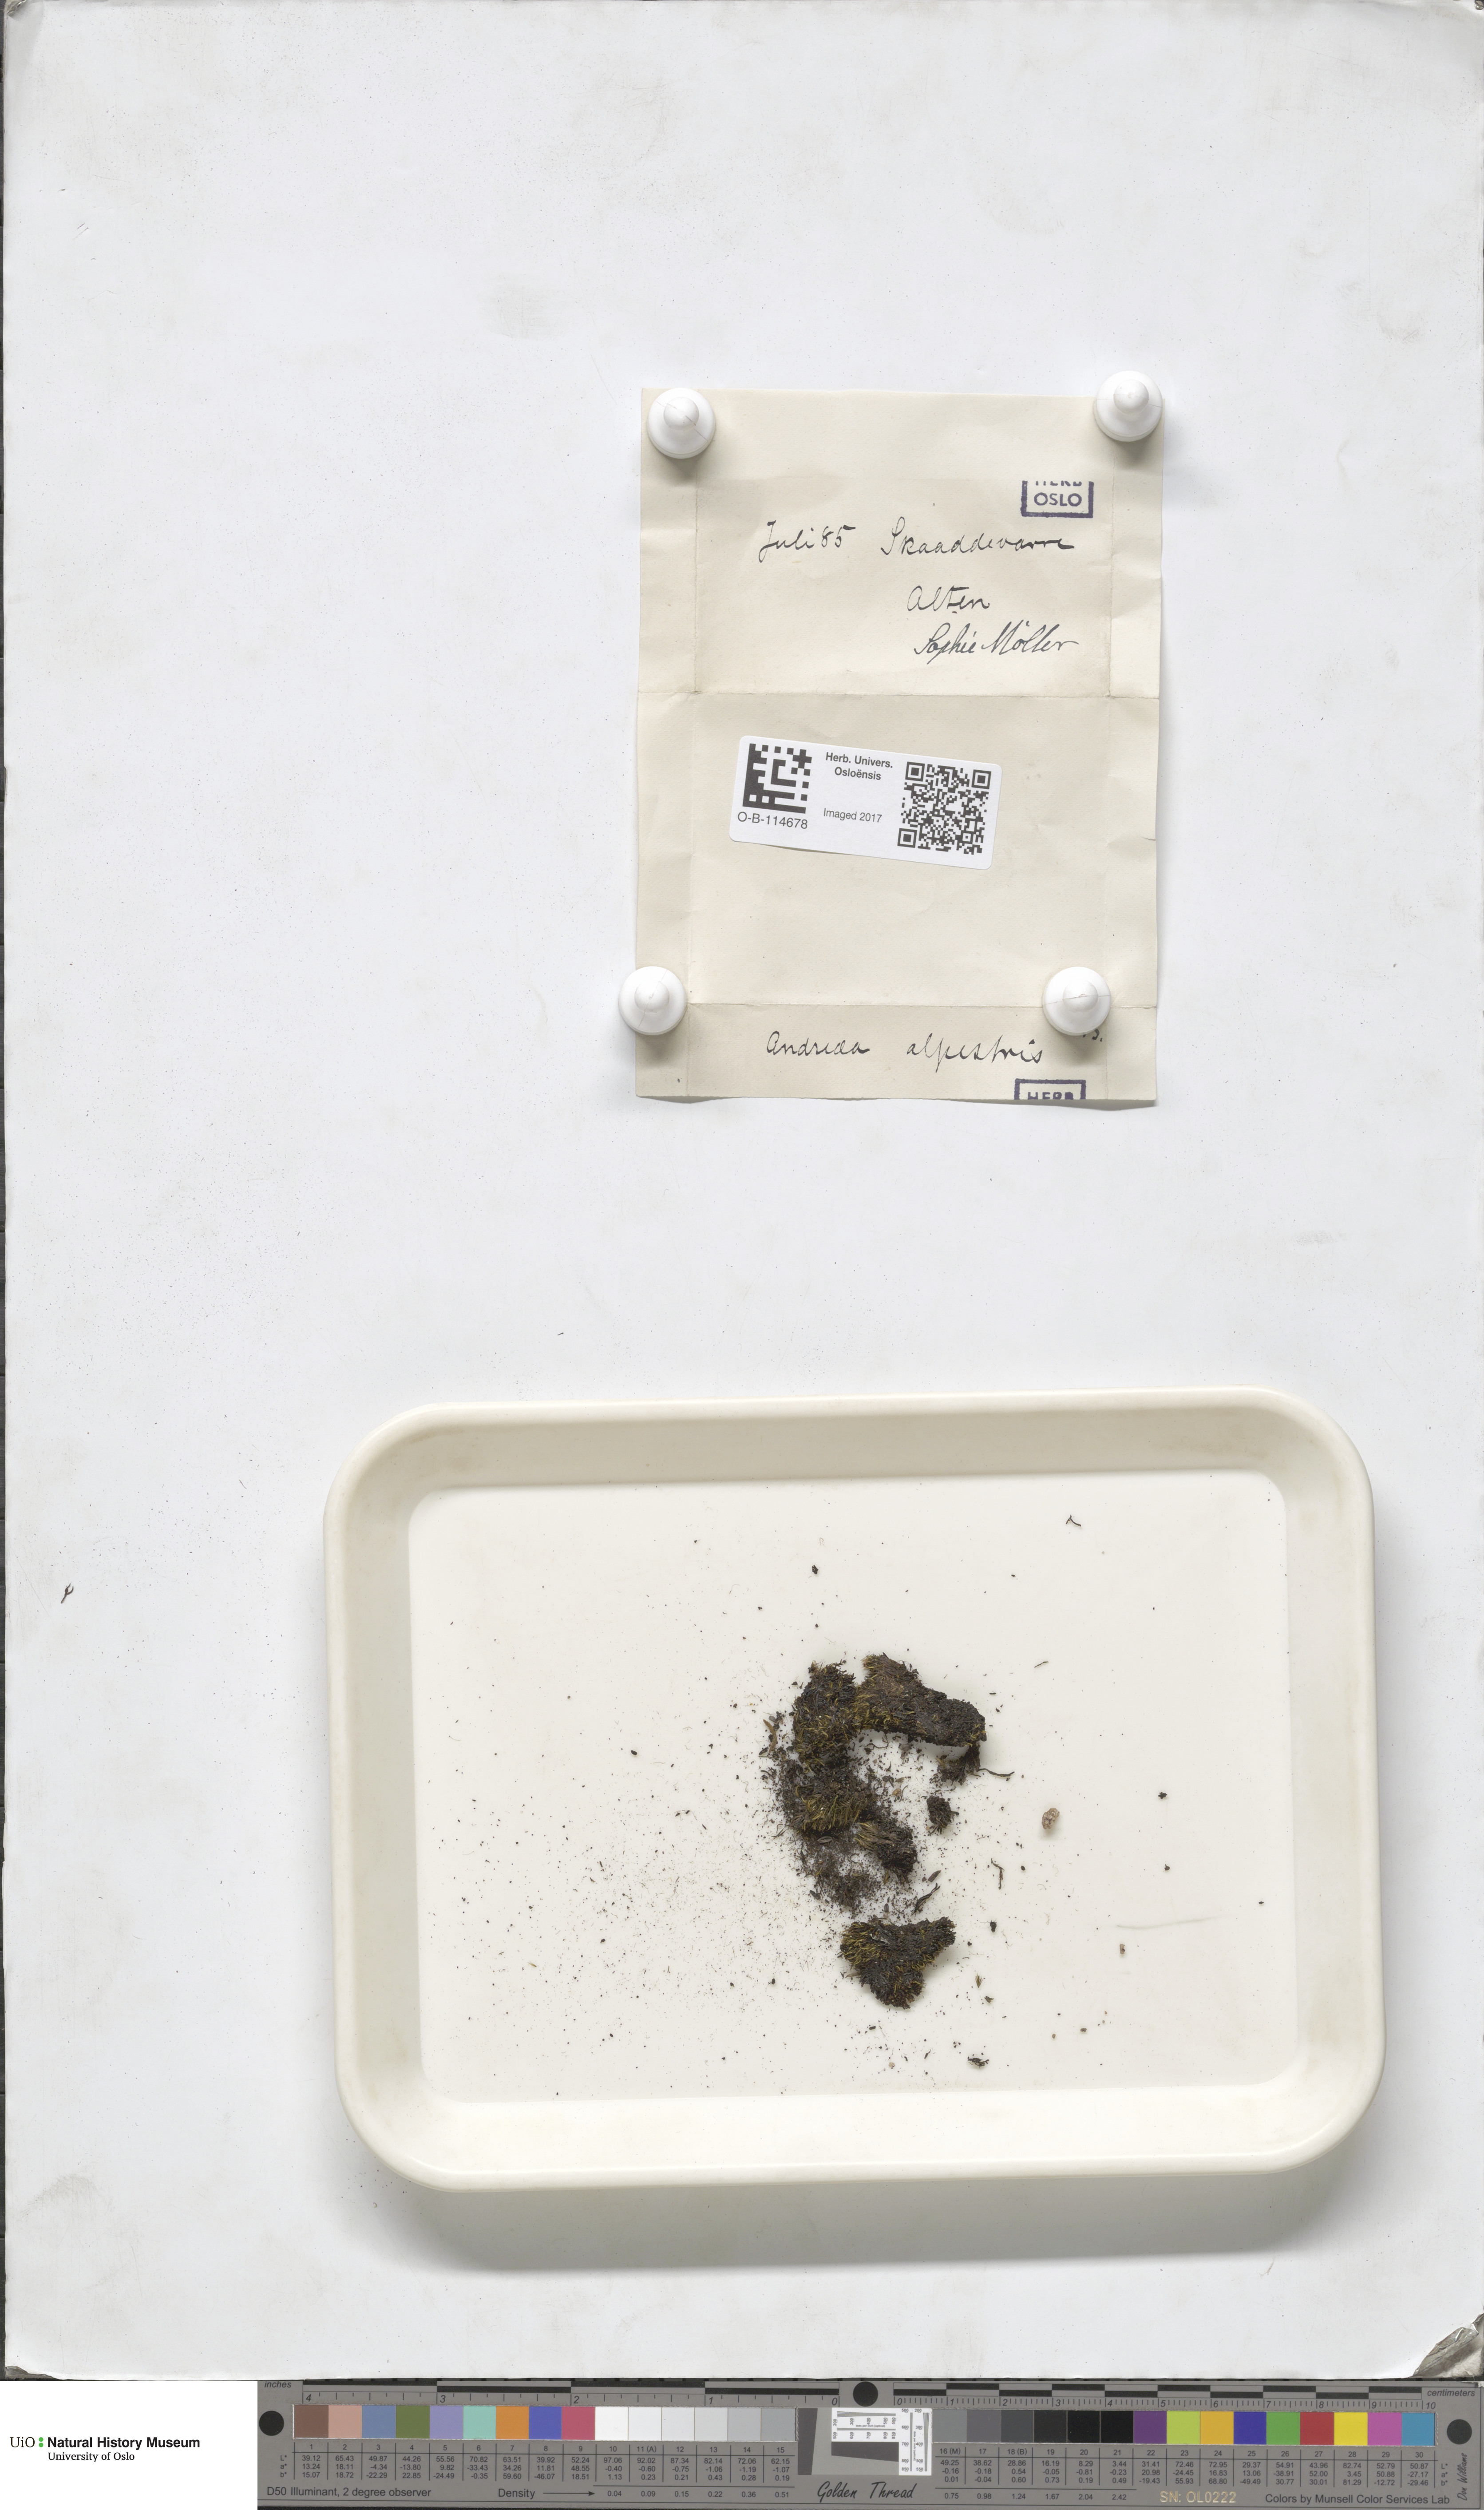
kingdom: Plantae
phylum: Bryophyta
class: Andreaeopsida
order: Andreaeales
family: Andreaeaceae
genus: Andreaea
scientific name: Andreaea alpestris
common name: Slender rock-moss
